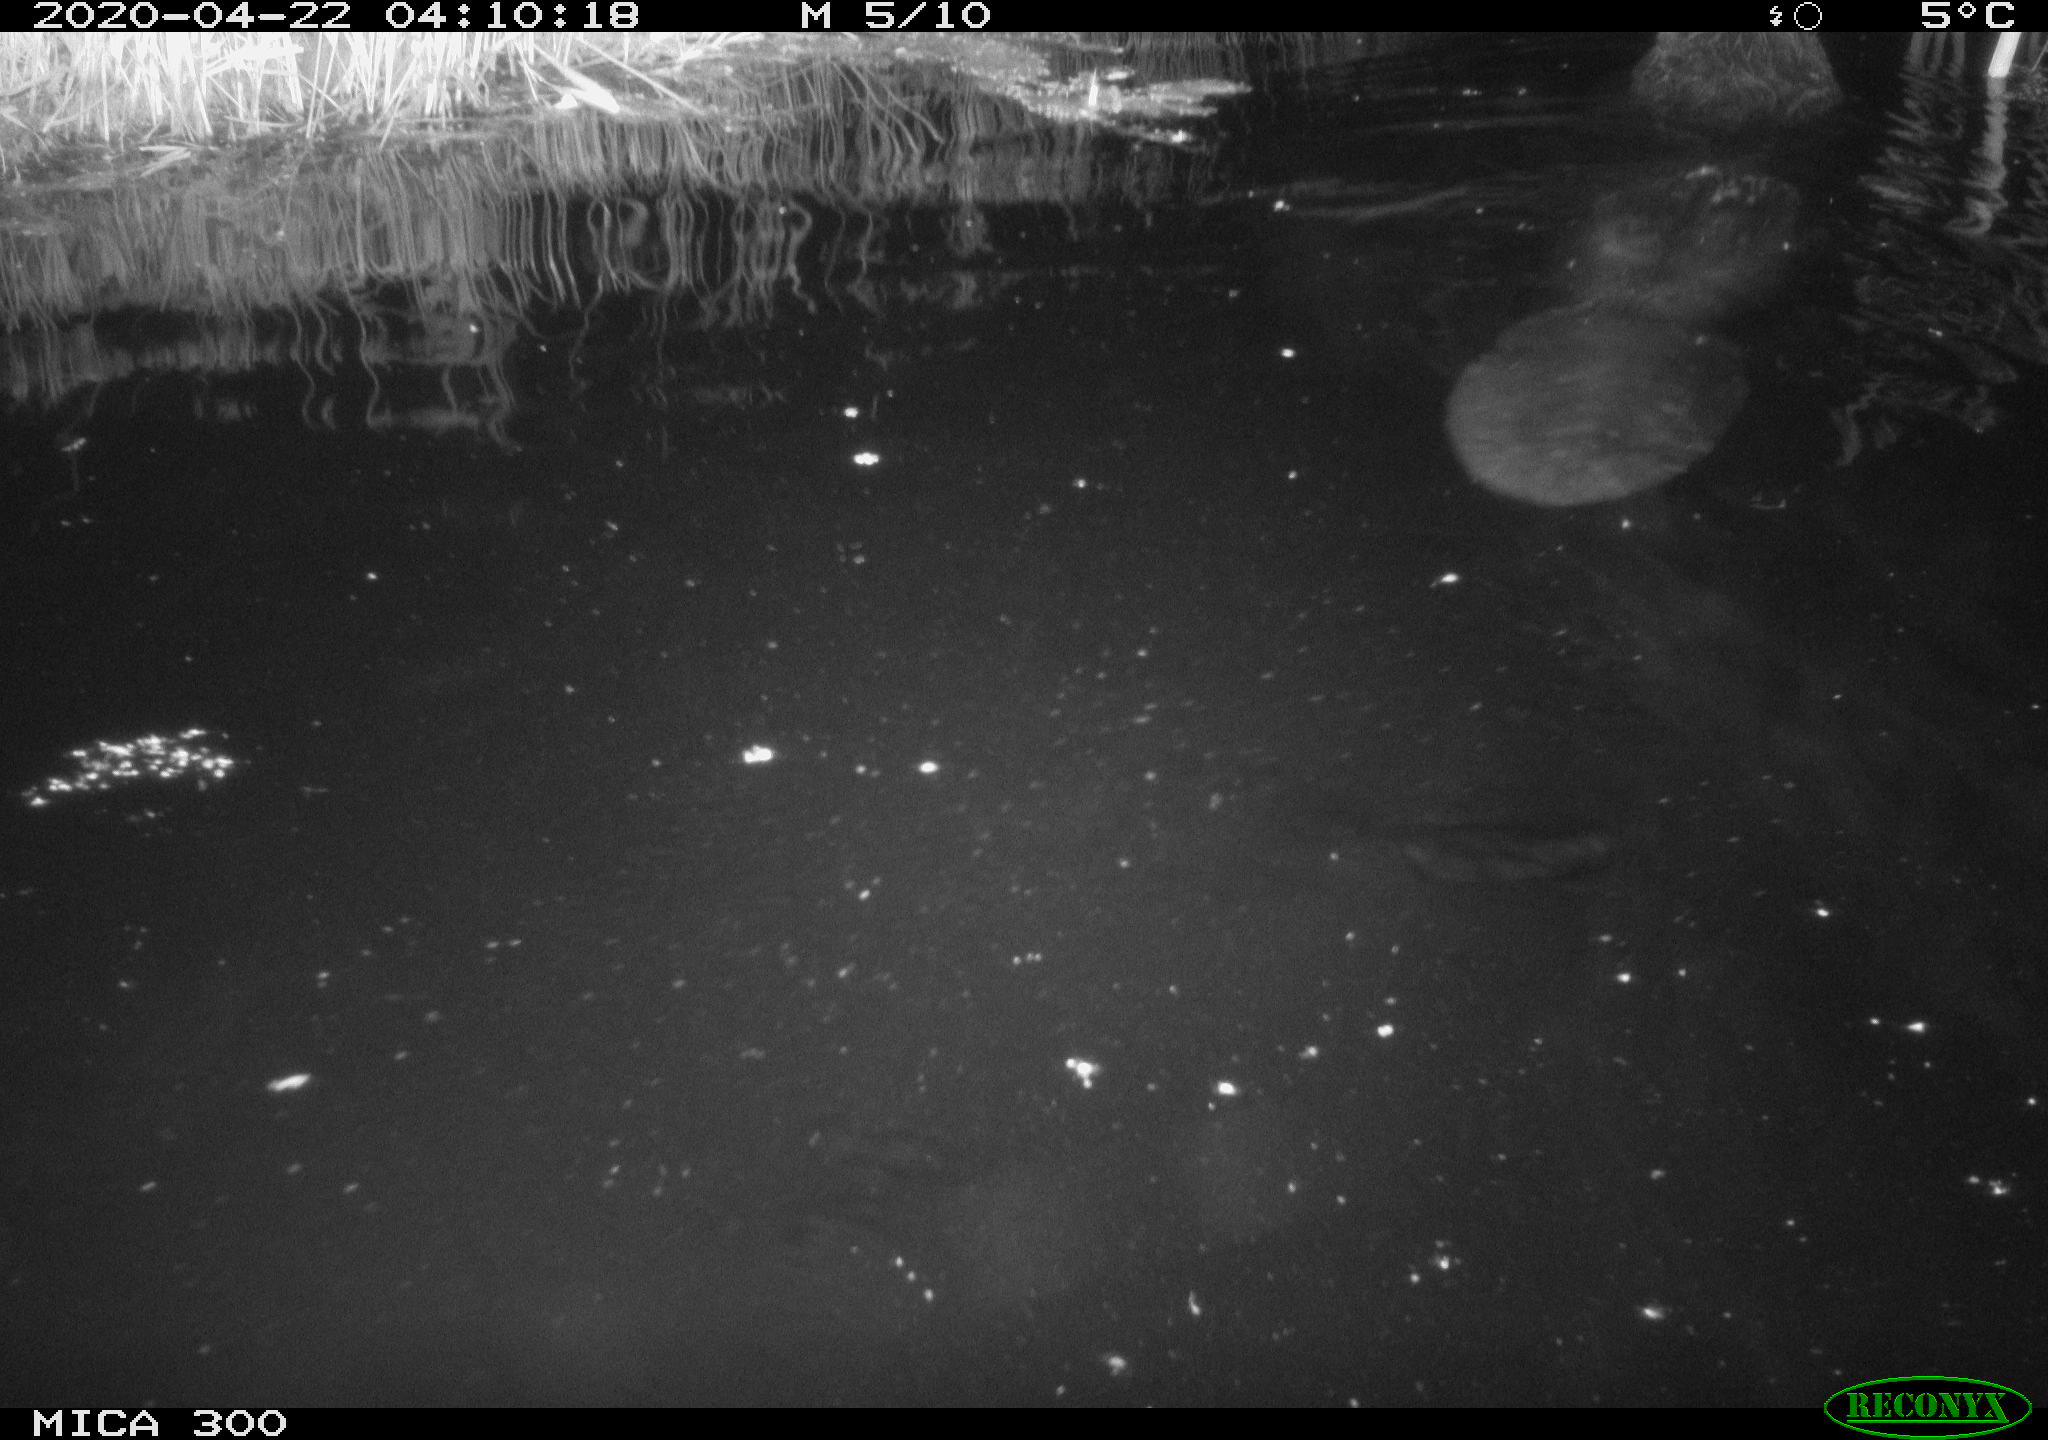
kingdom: Animalia
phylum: Chordata
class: Mammalia
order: Rodentia
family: Castoridae
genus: Castor
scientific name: Castor fiber
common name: Eurasian beaver
